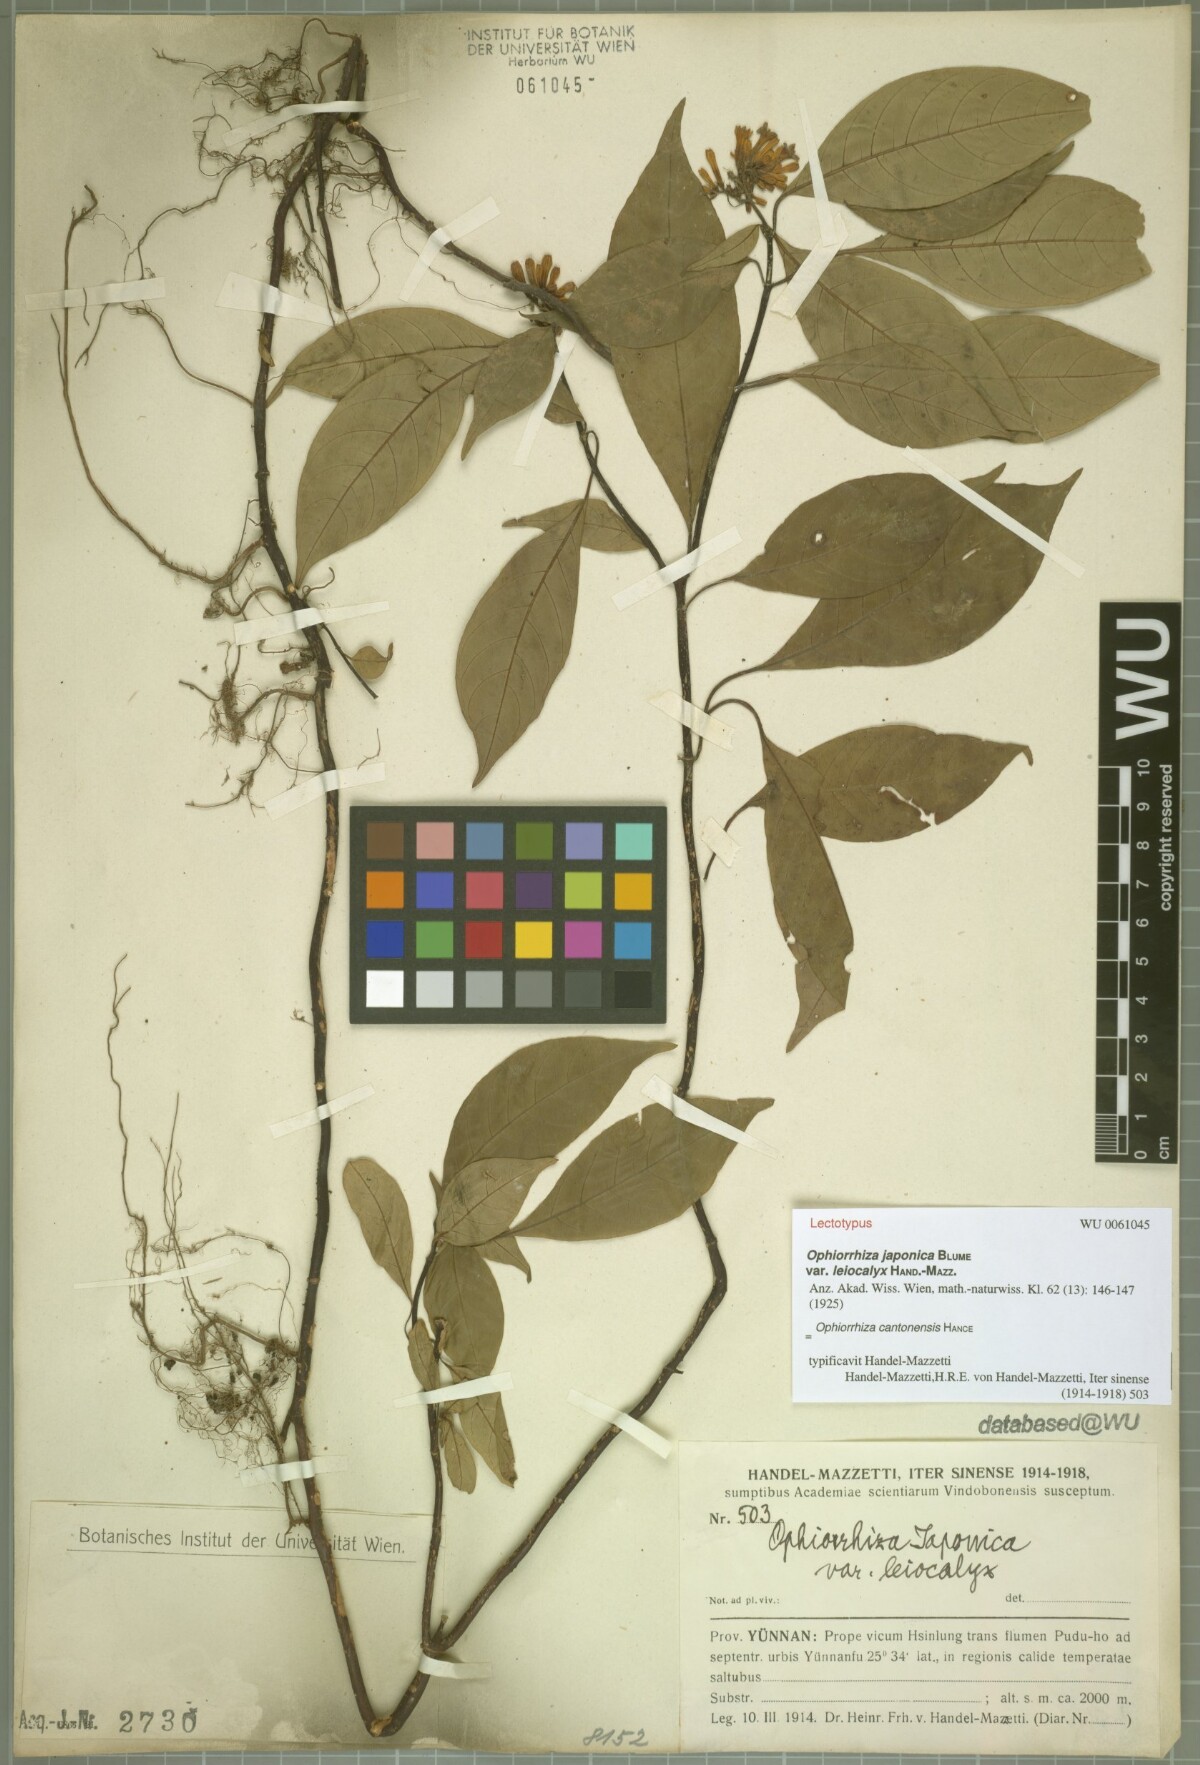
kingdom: Plantae
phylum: Tracheophyta
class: Magnoliopsida
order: Gentianales
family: Rubiaceae
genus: Ophiorrhiza
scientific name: Ophiorrhiza japonica
